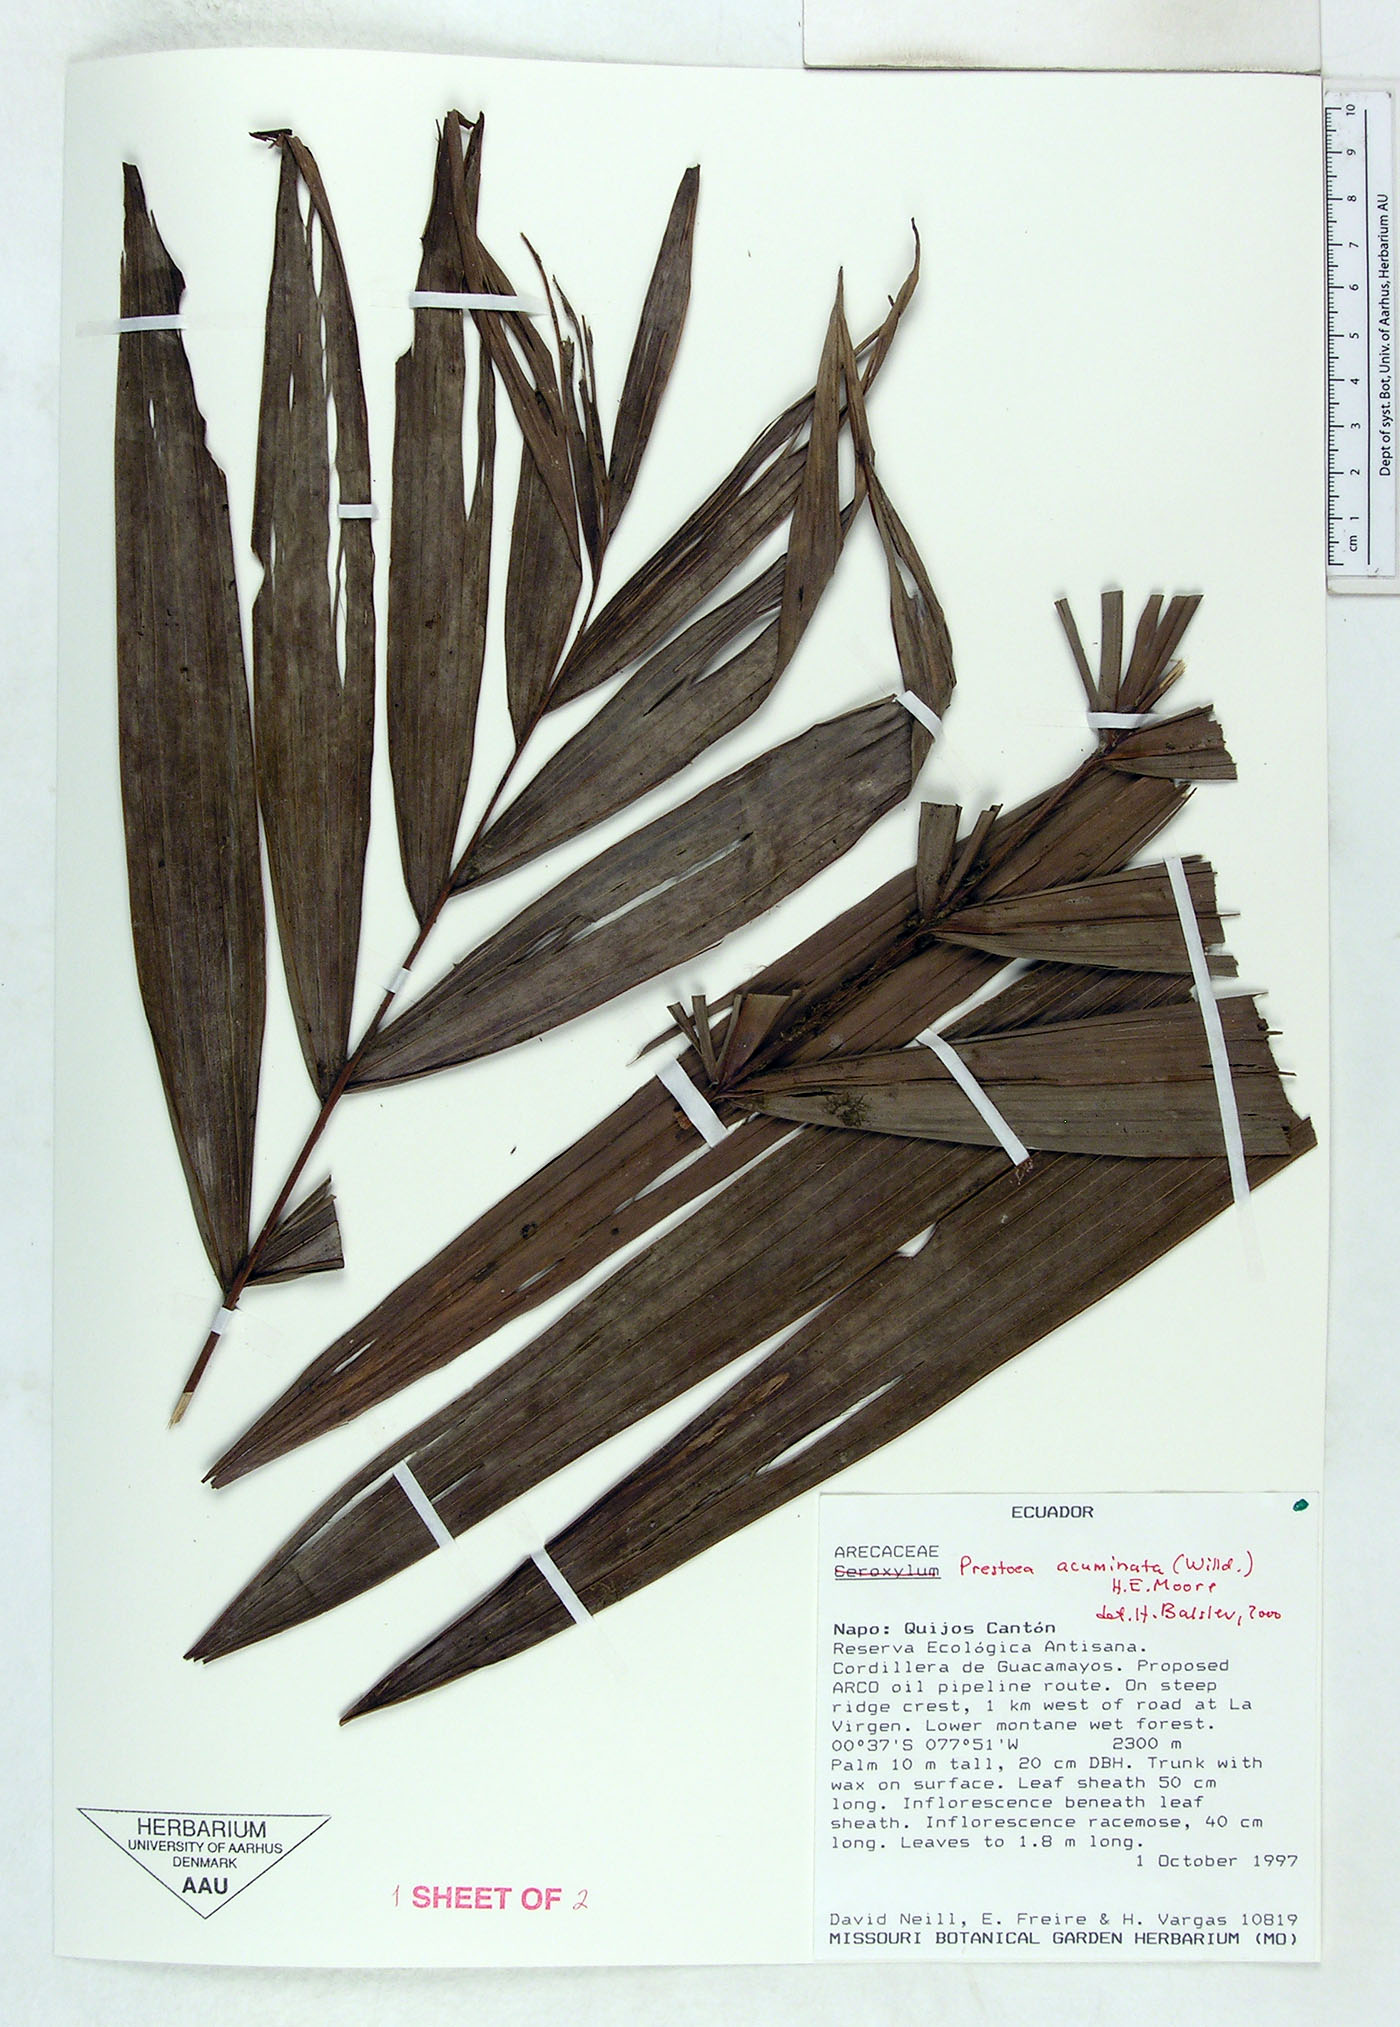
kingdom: Plantae
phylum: Tracheophyta
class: Liliopsida
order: Arecales
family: Arecaceae
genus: Prestoea
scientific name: Prestoea acuminata
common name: Sierran palm
